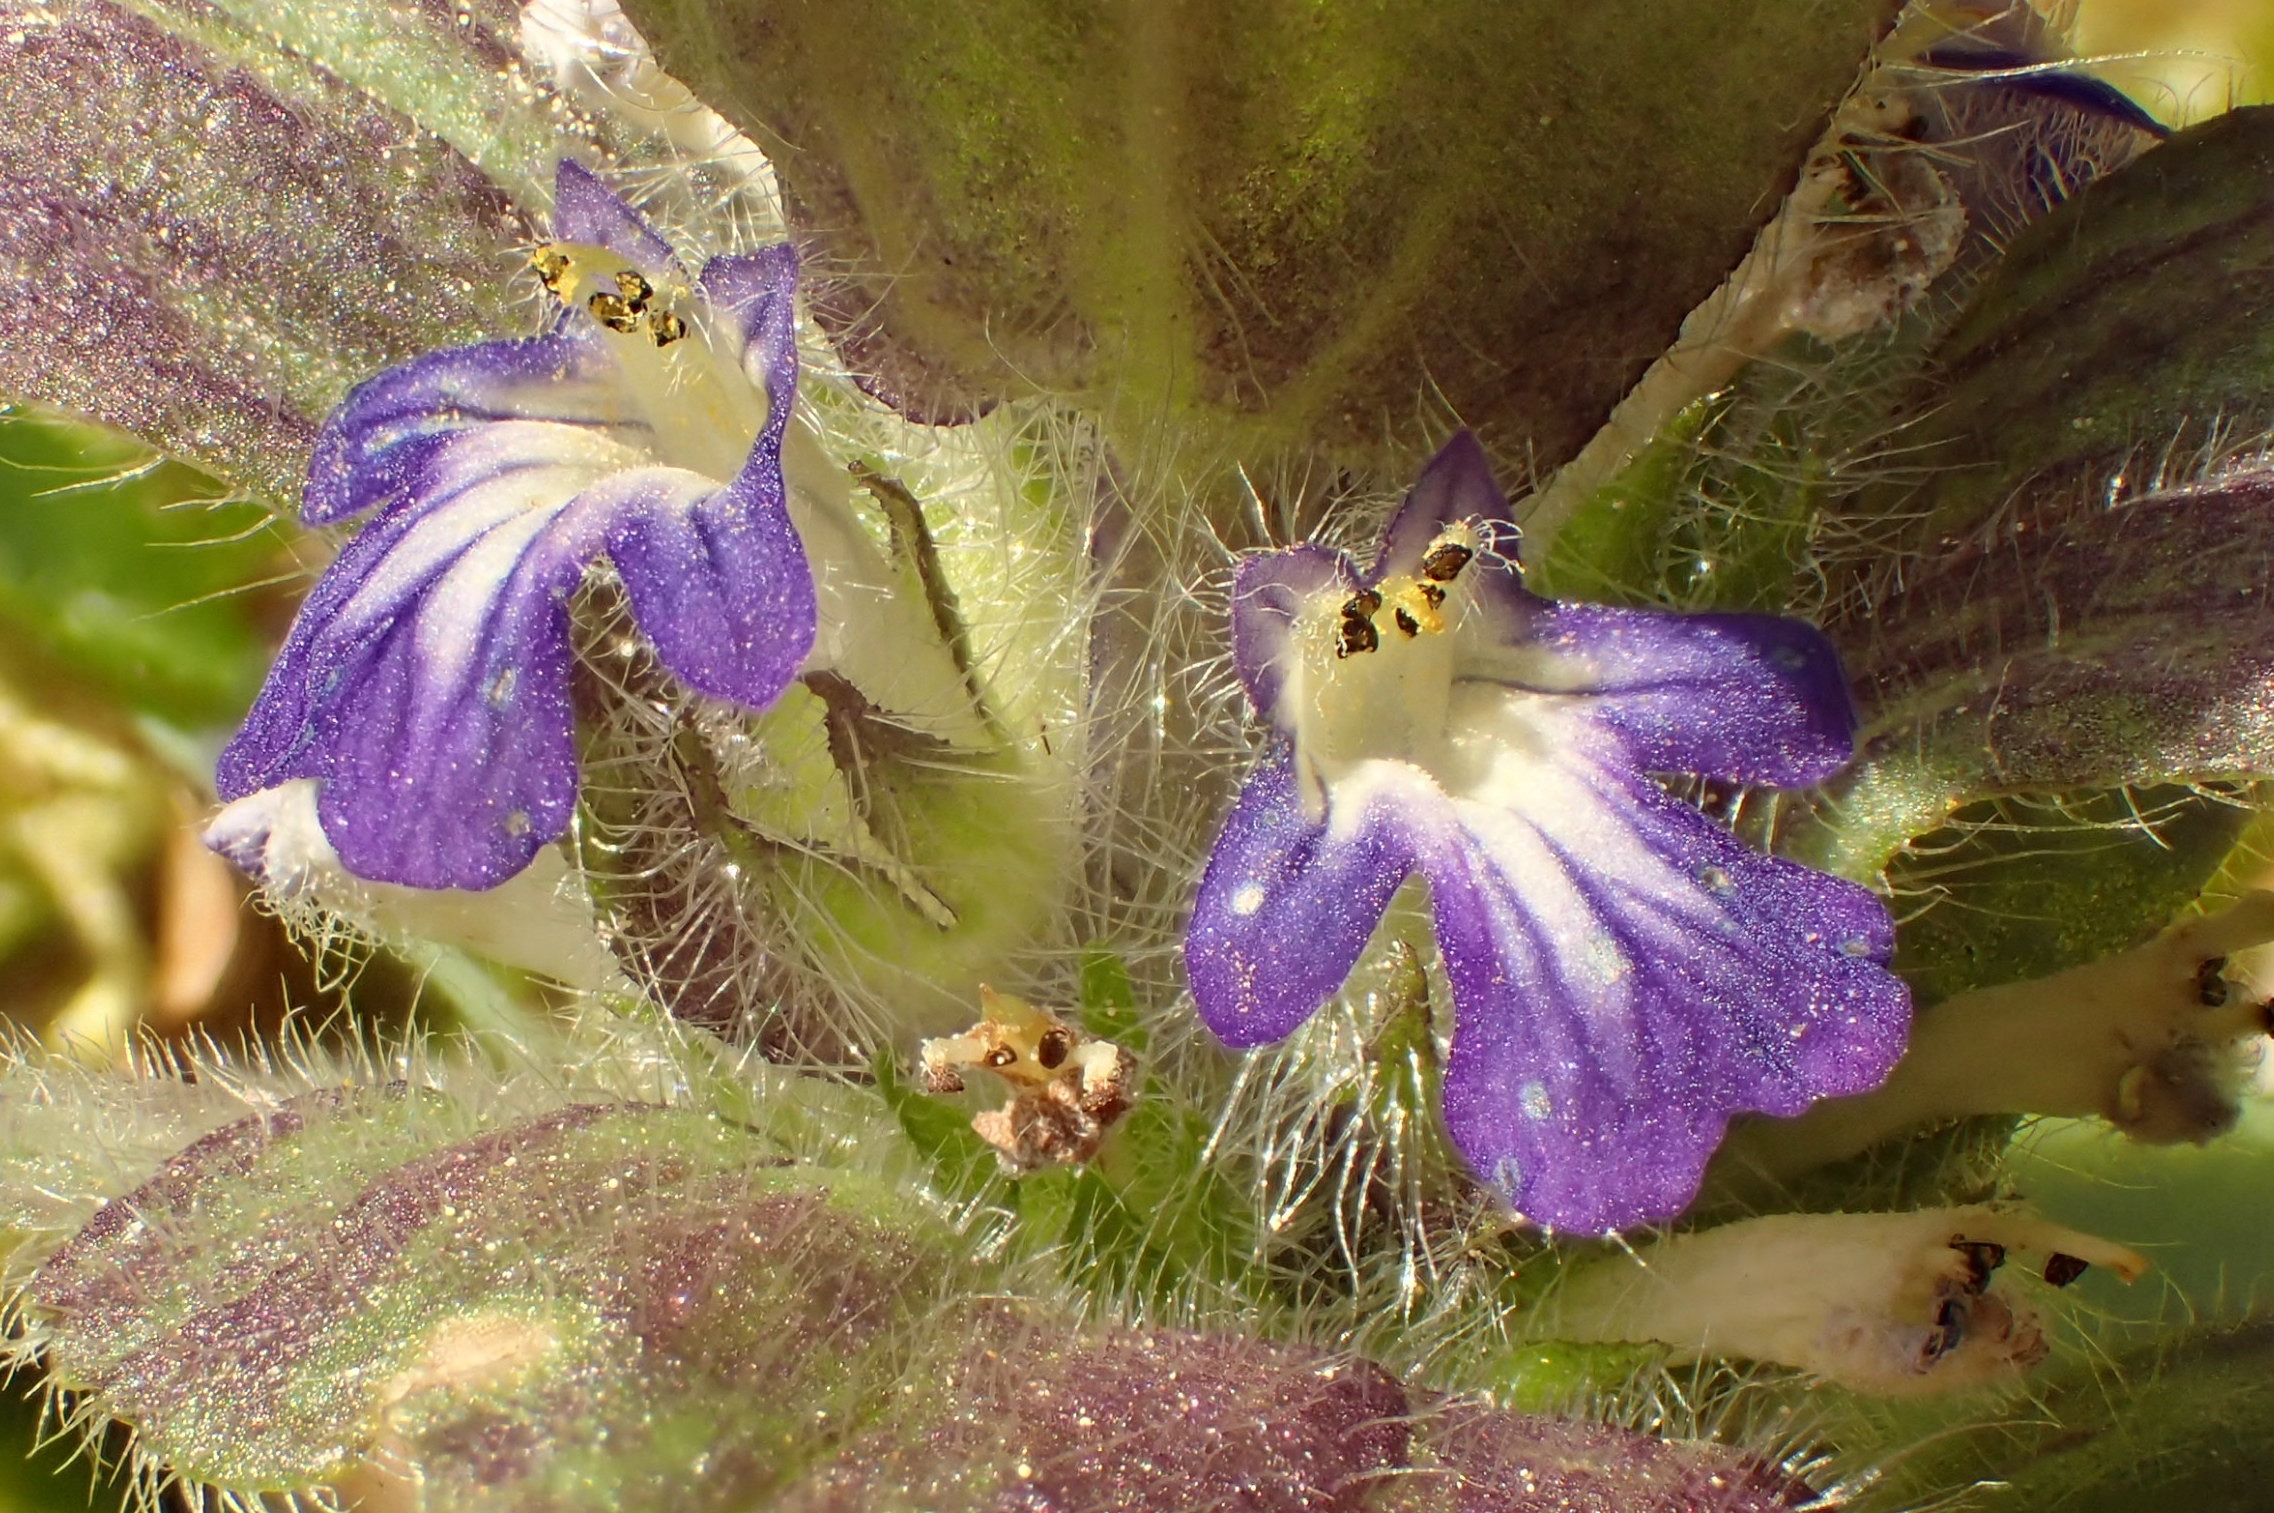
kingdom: Plantae
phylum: Tracheophyta
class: Magnoliopsida
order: Lamiales
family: Lamiaceae
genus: Ajuga
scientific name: Ajuga pyramidalis
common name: Pyramide-læbeløs
